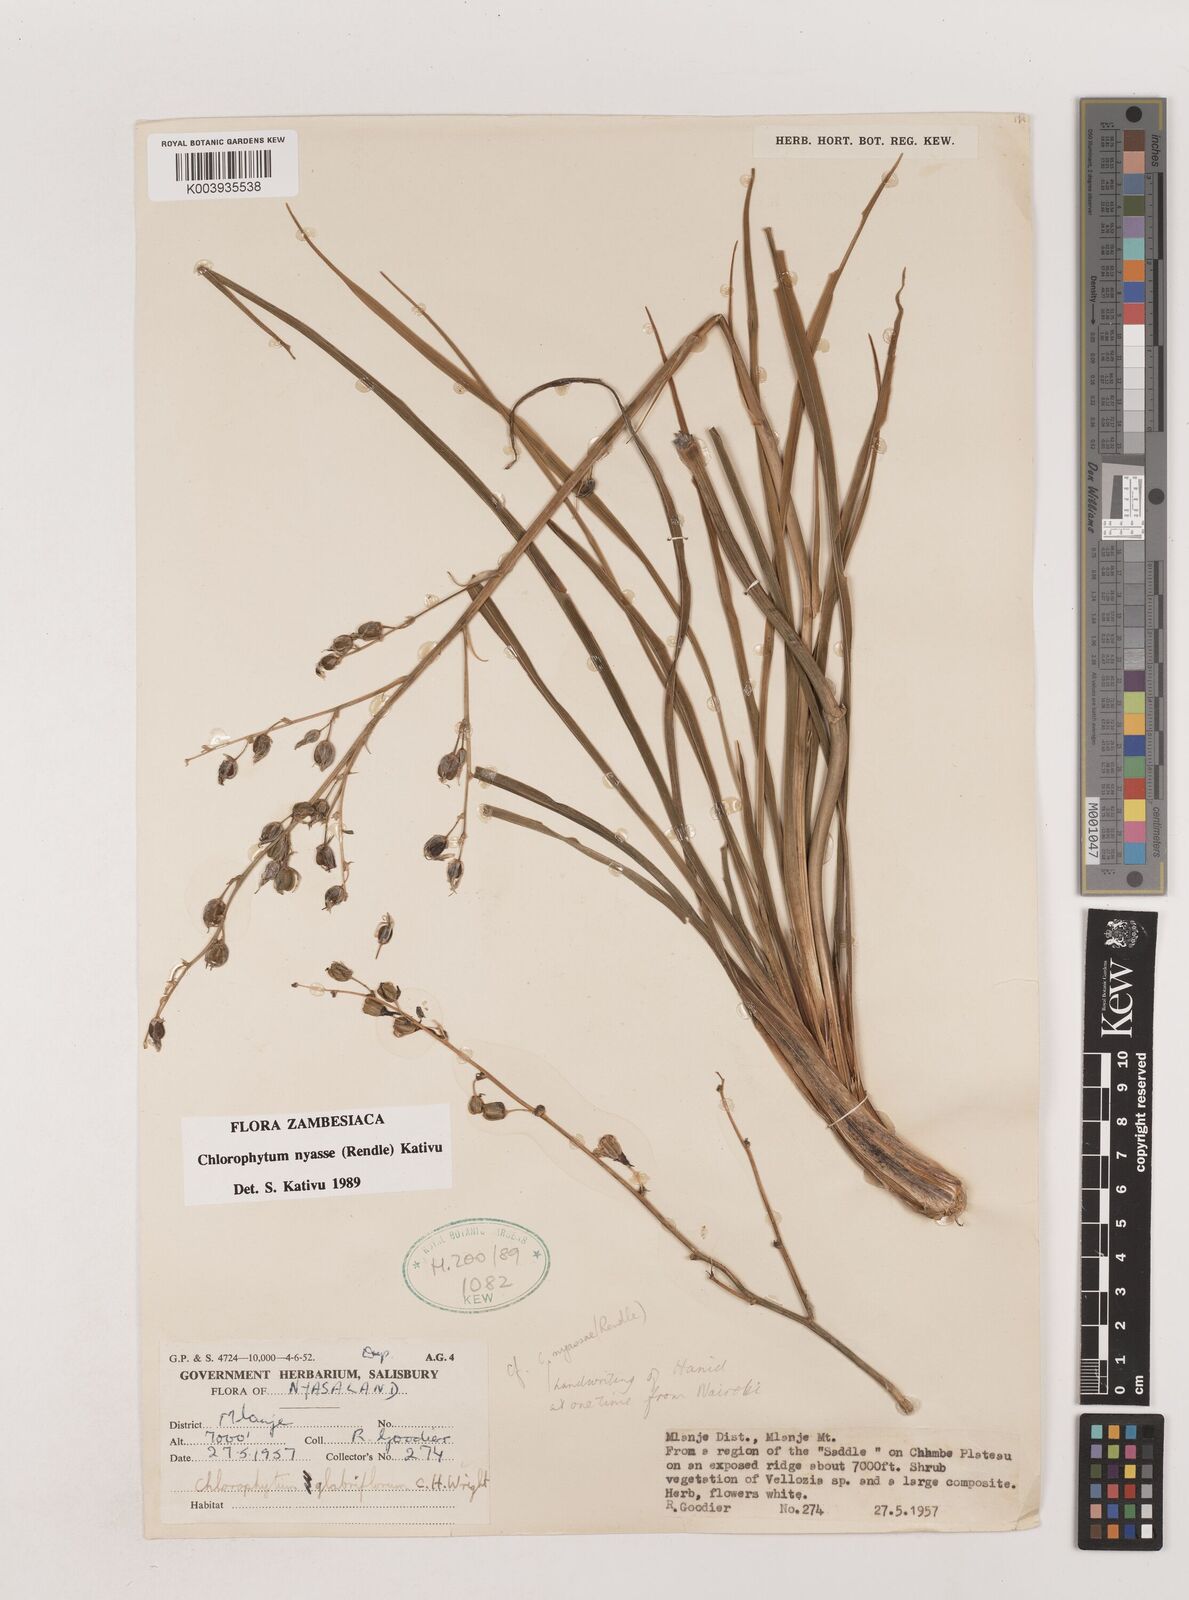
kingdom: Plantae
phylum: Tracheophyta
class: Liliopsida
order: Asparagales
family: Asparagaceae
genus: Chlorophytum
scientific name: Chlorophytum nyasae
